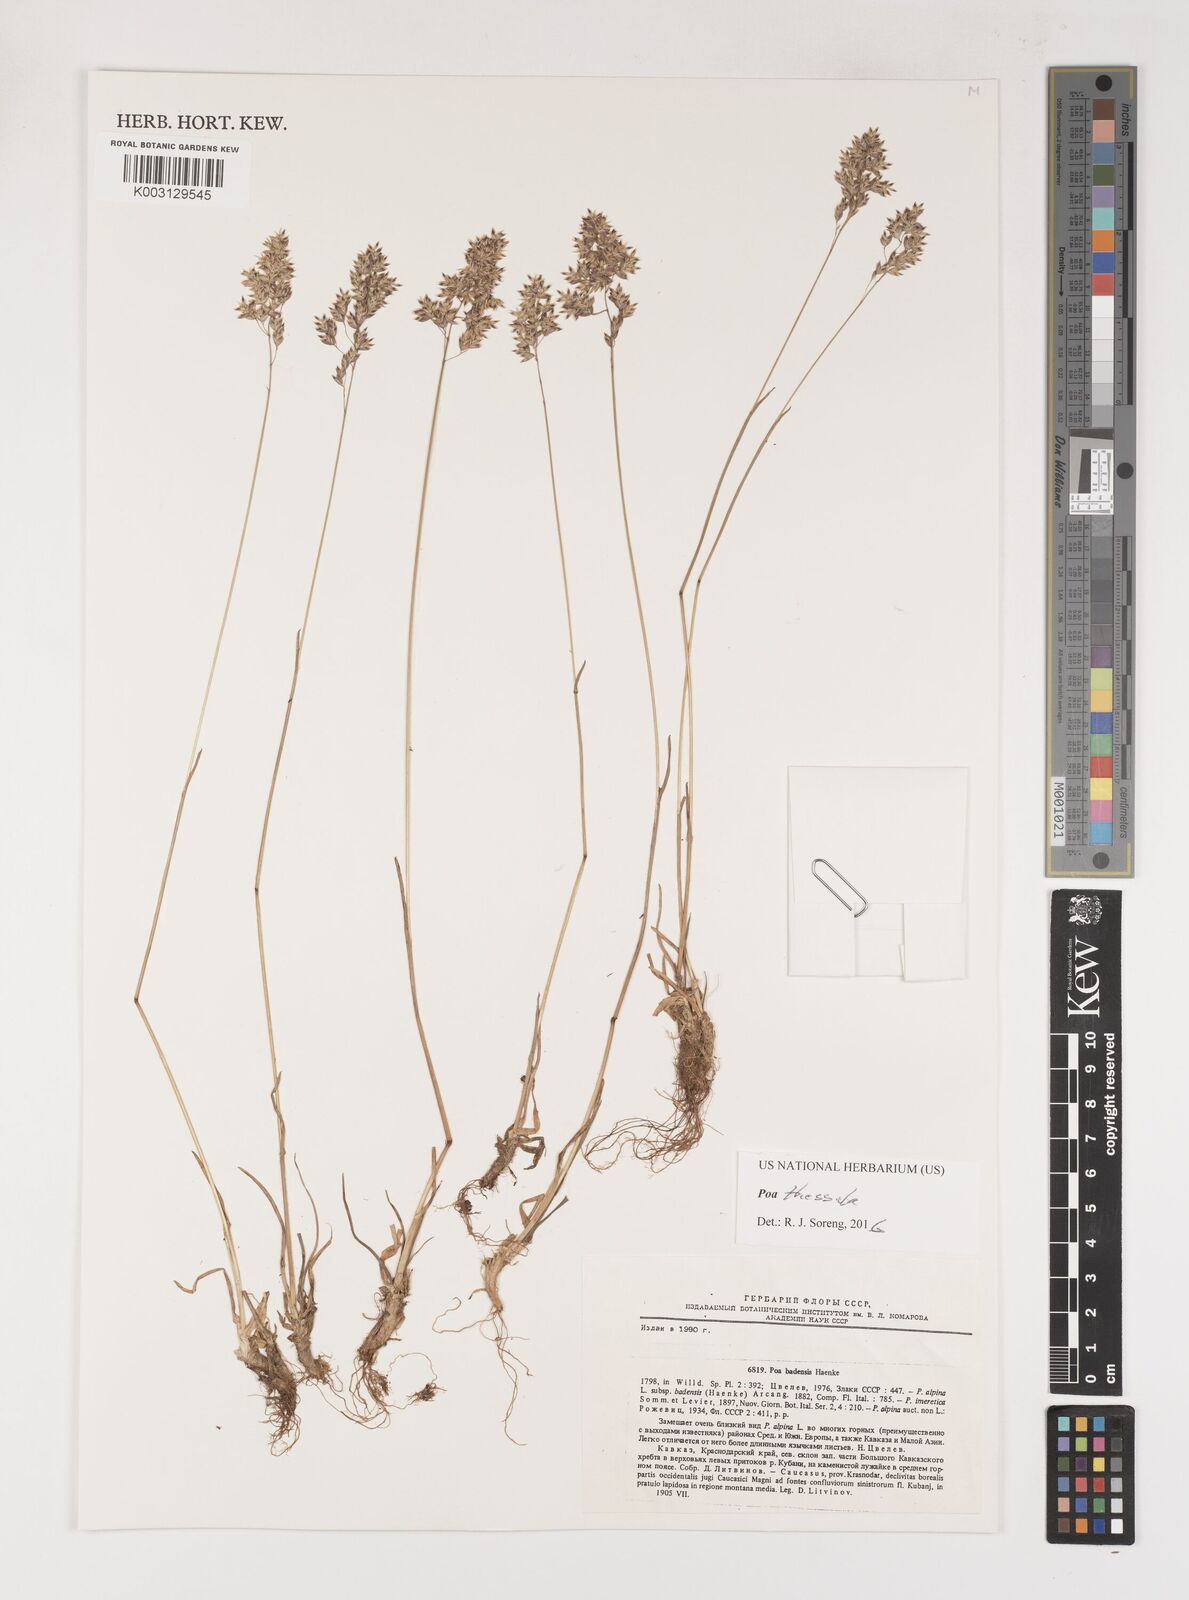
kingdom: Plantae
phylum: Tracheophyta
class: Liliopsida
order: Poales
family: Poaceae
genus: Poa
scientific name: Poa thessala
